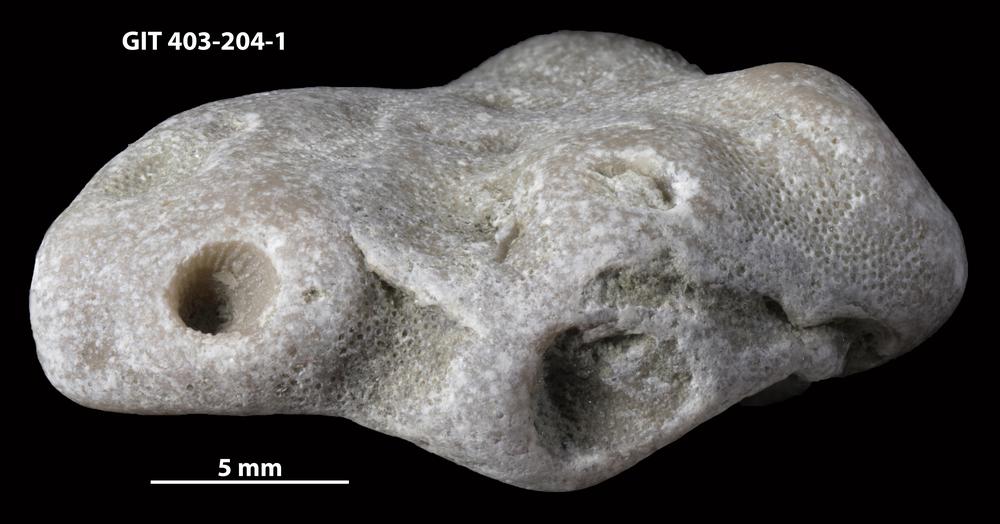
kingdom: Animalia
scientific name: Animalia
